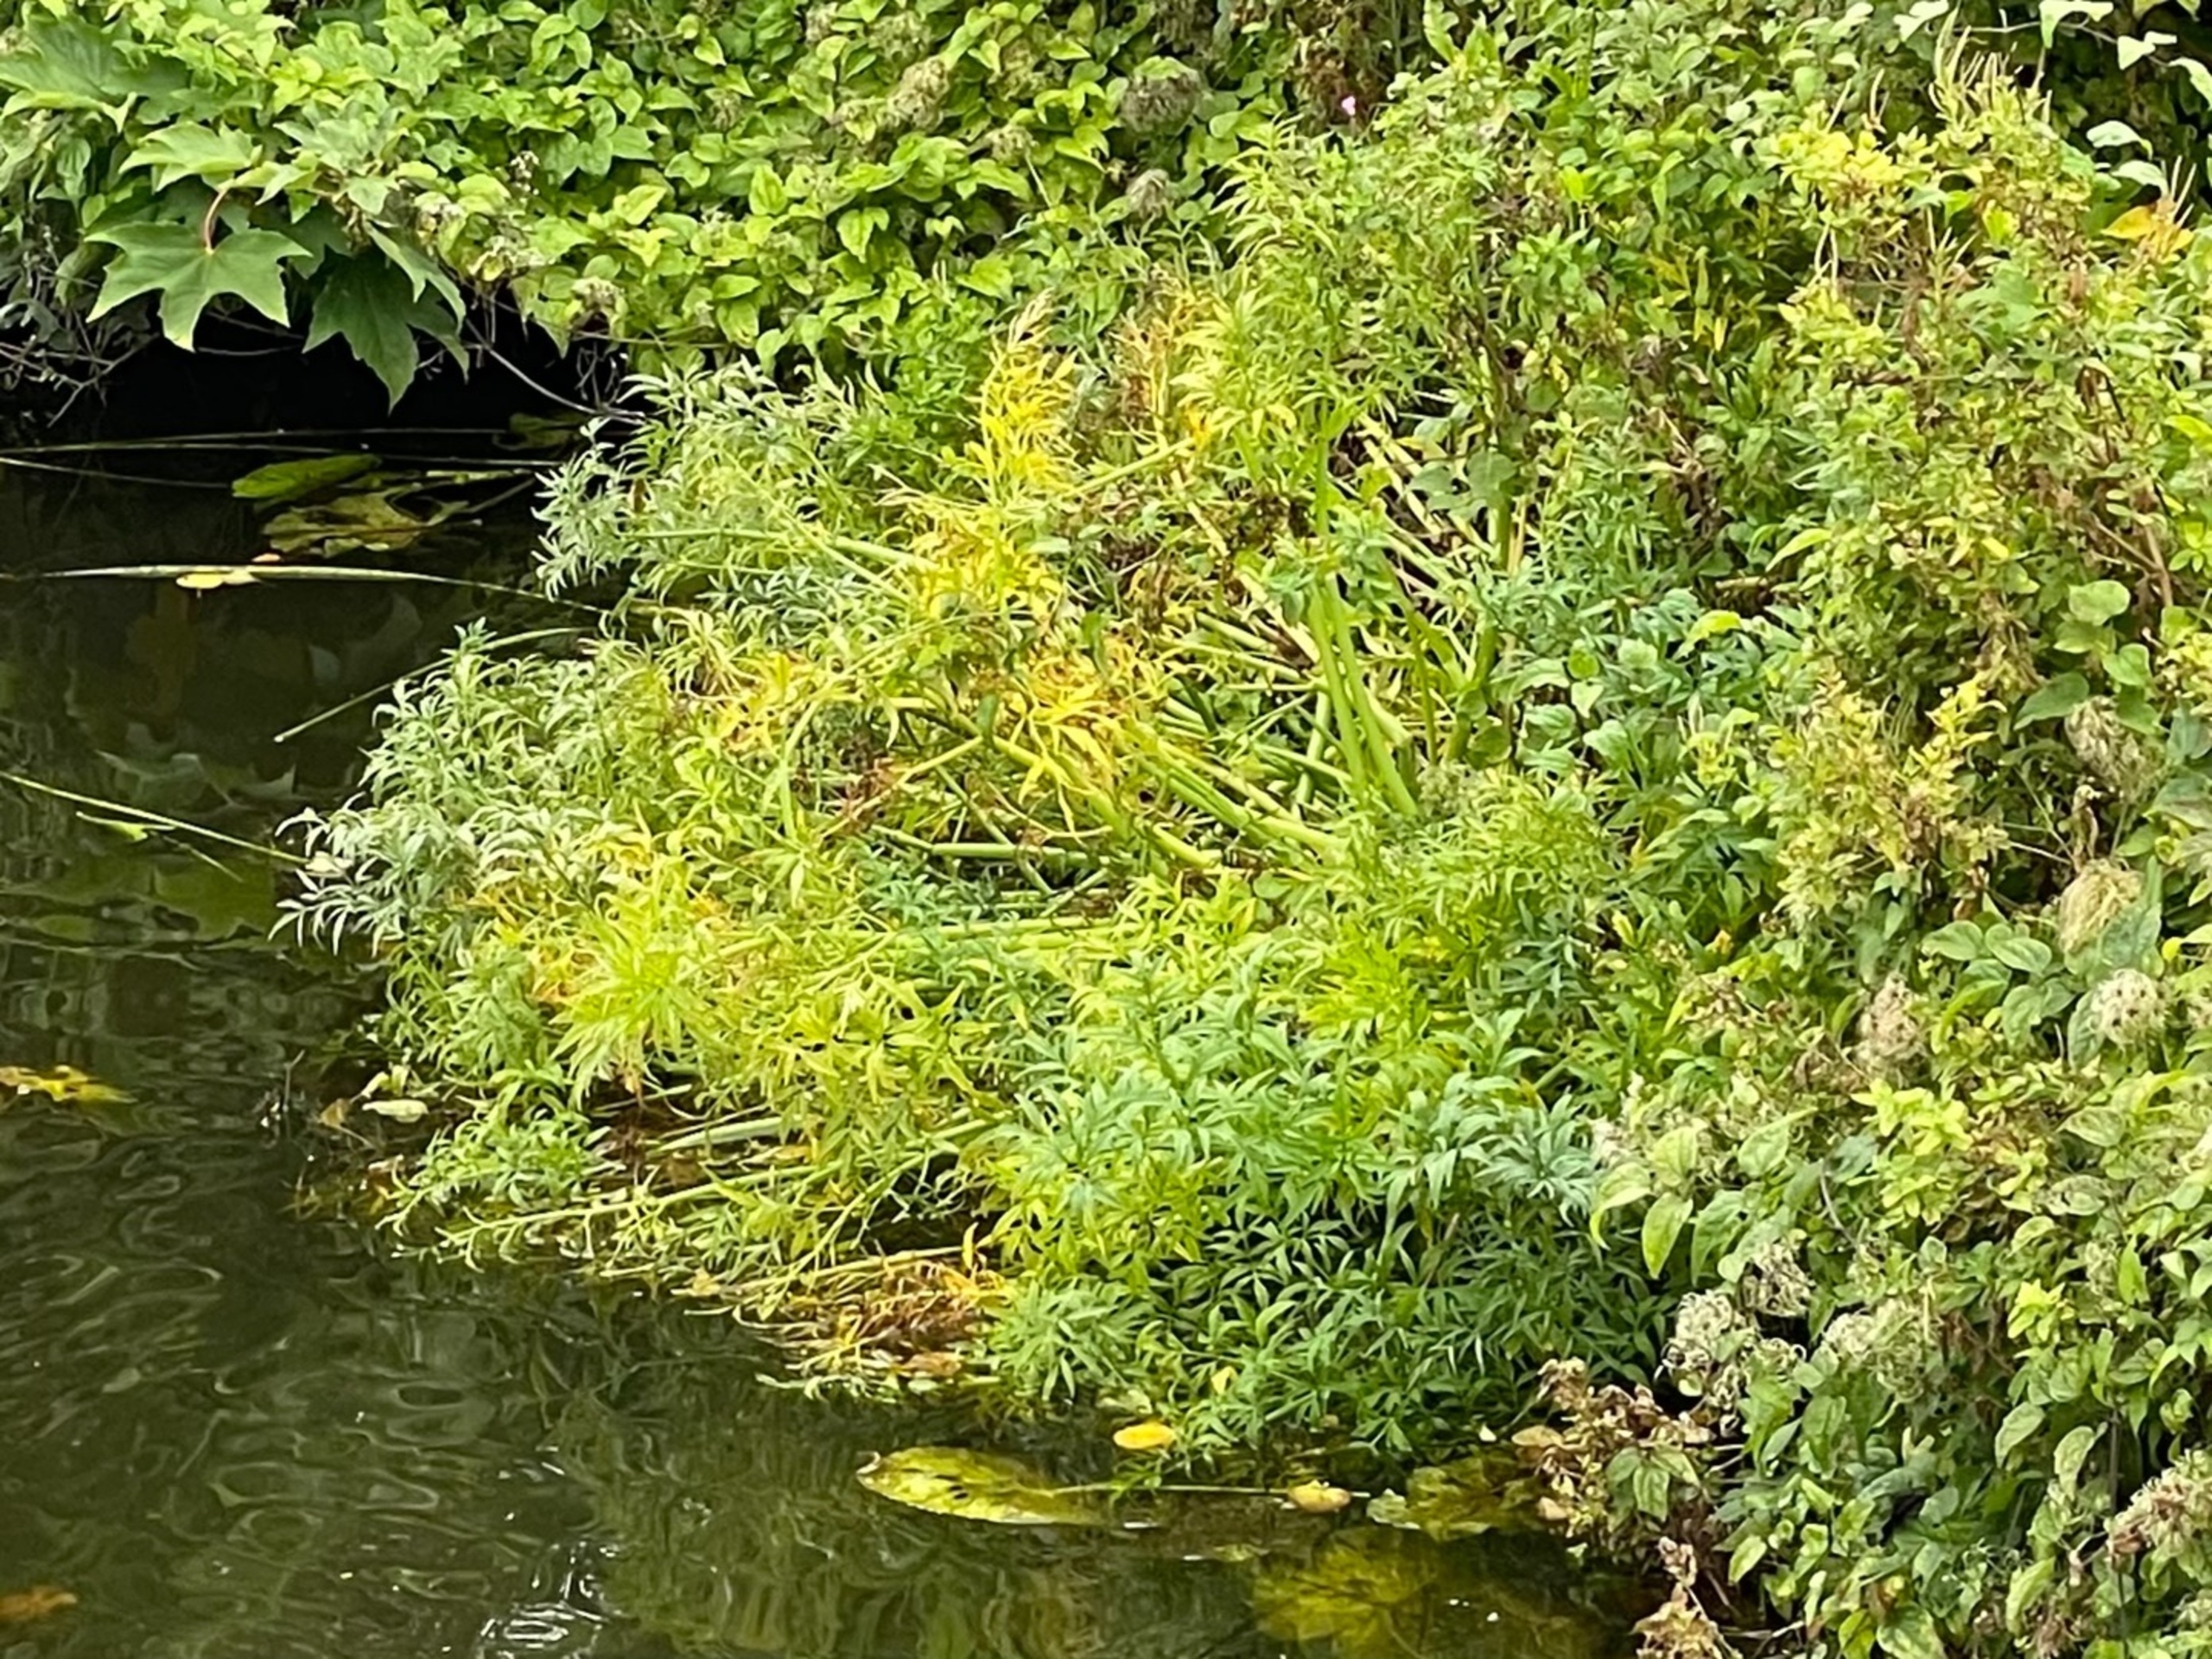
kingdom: Plantae
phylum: Tracheophyta
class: Magnoliopsida
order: Apiales
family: Apiaceae
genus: Cicuta
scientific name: Cicuta virosa
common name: Gifttyde
